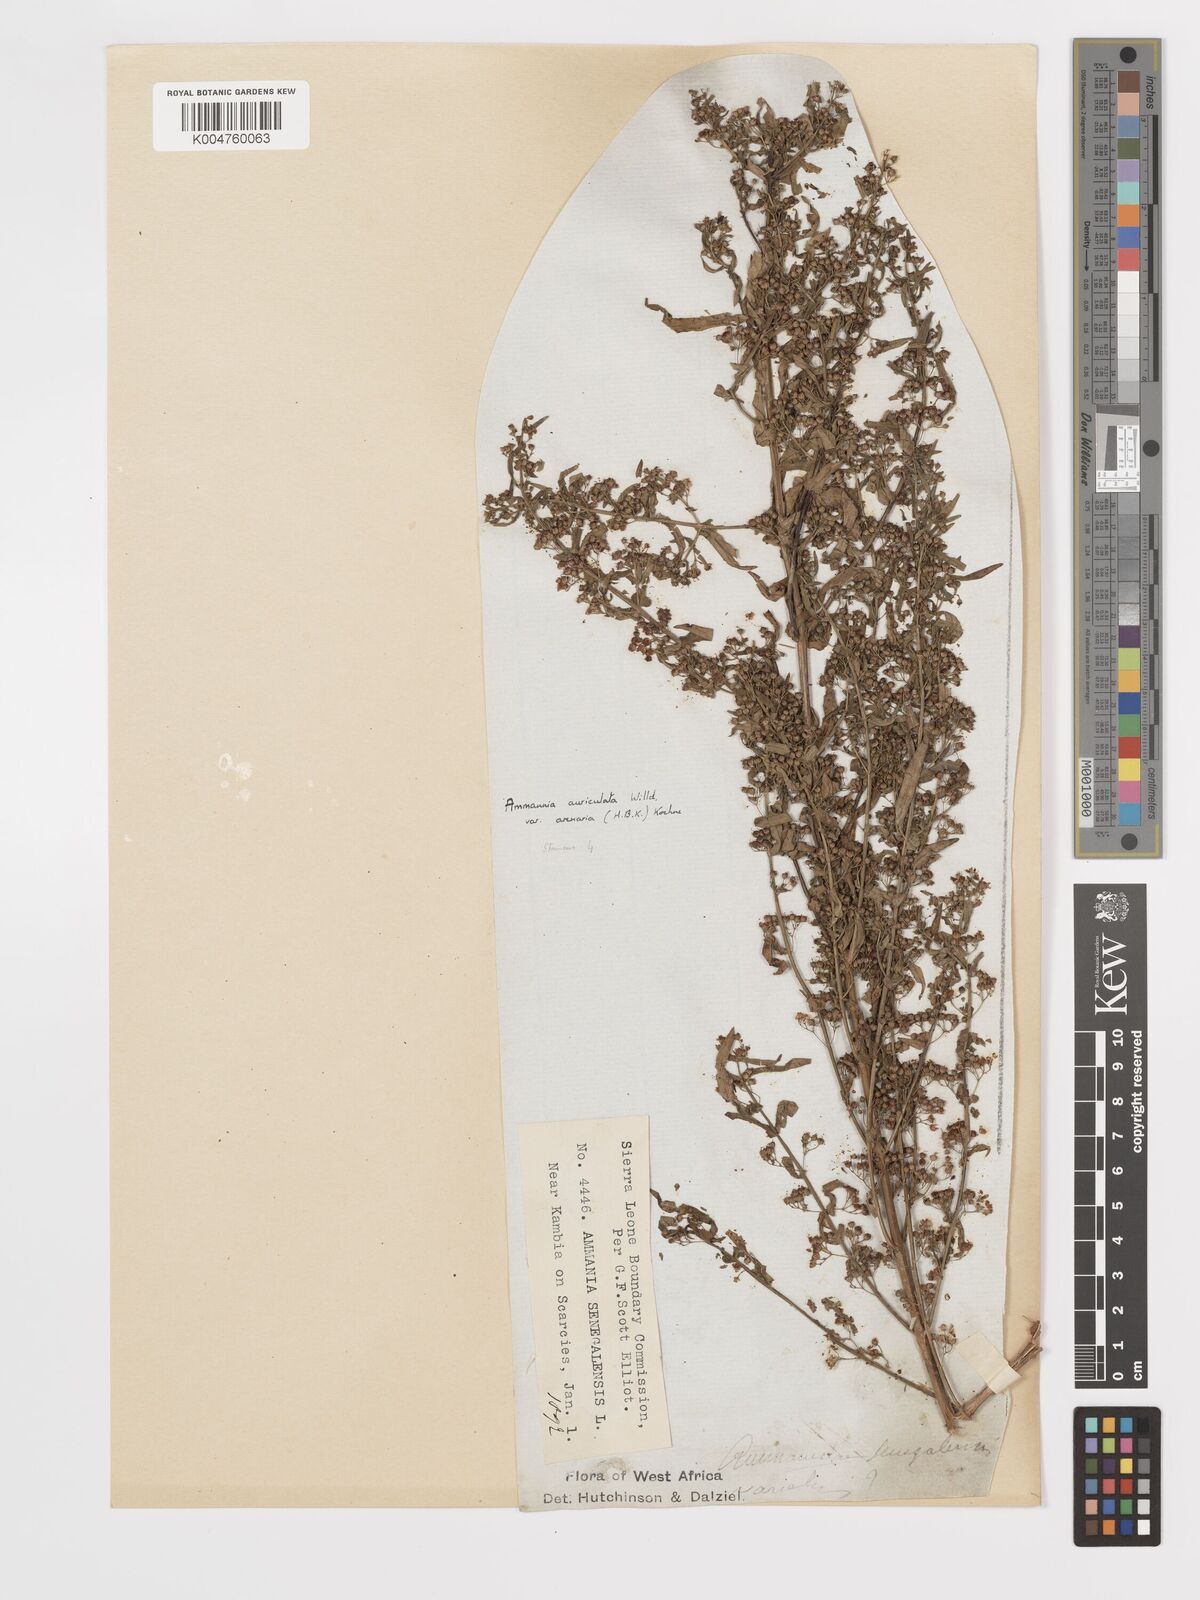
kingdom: Plantae
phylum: Tracheophyta
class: Magnoliopsida
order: Myrtales
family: Lythraceae
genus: Ammannia
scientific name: Ammannia auriculata
